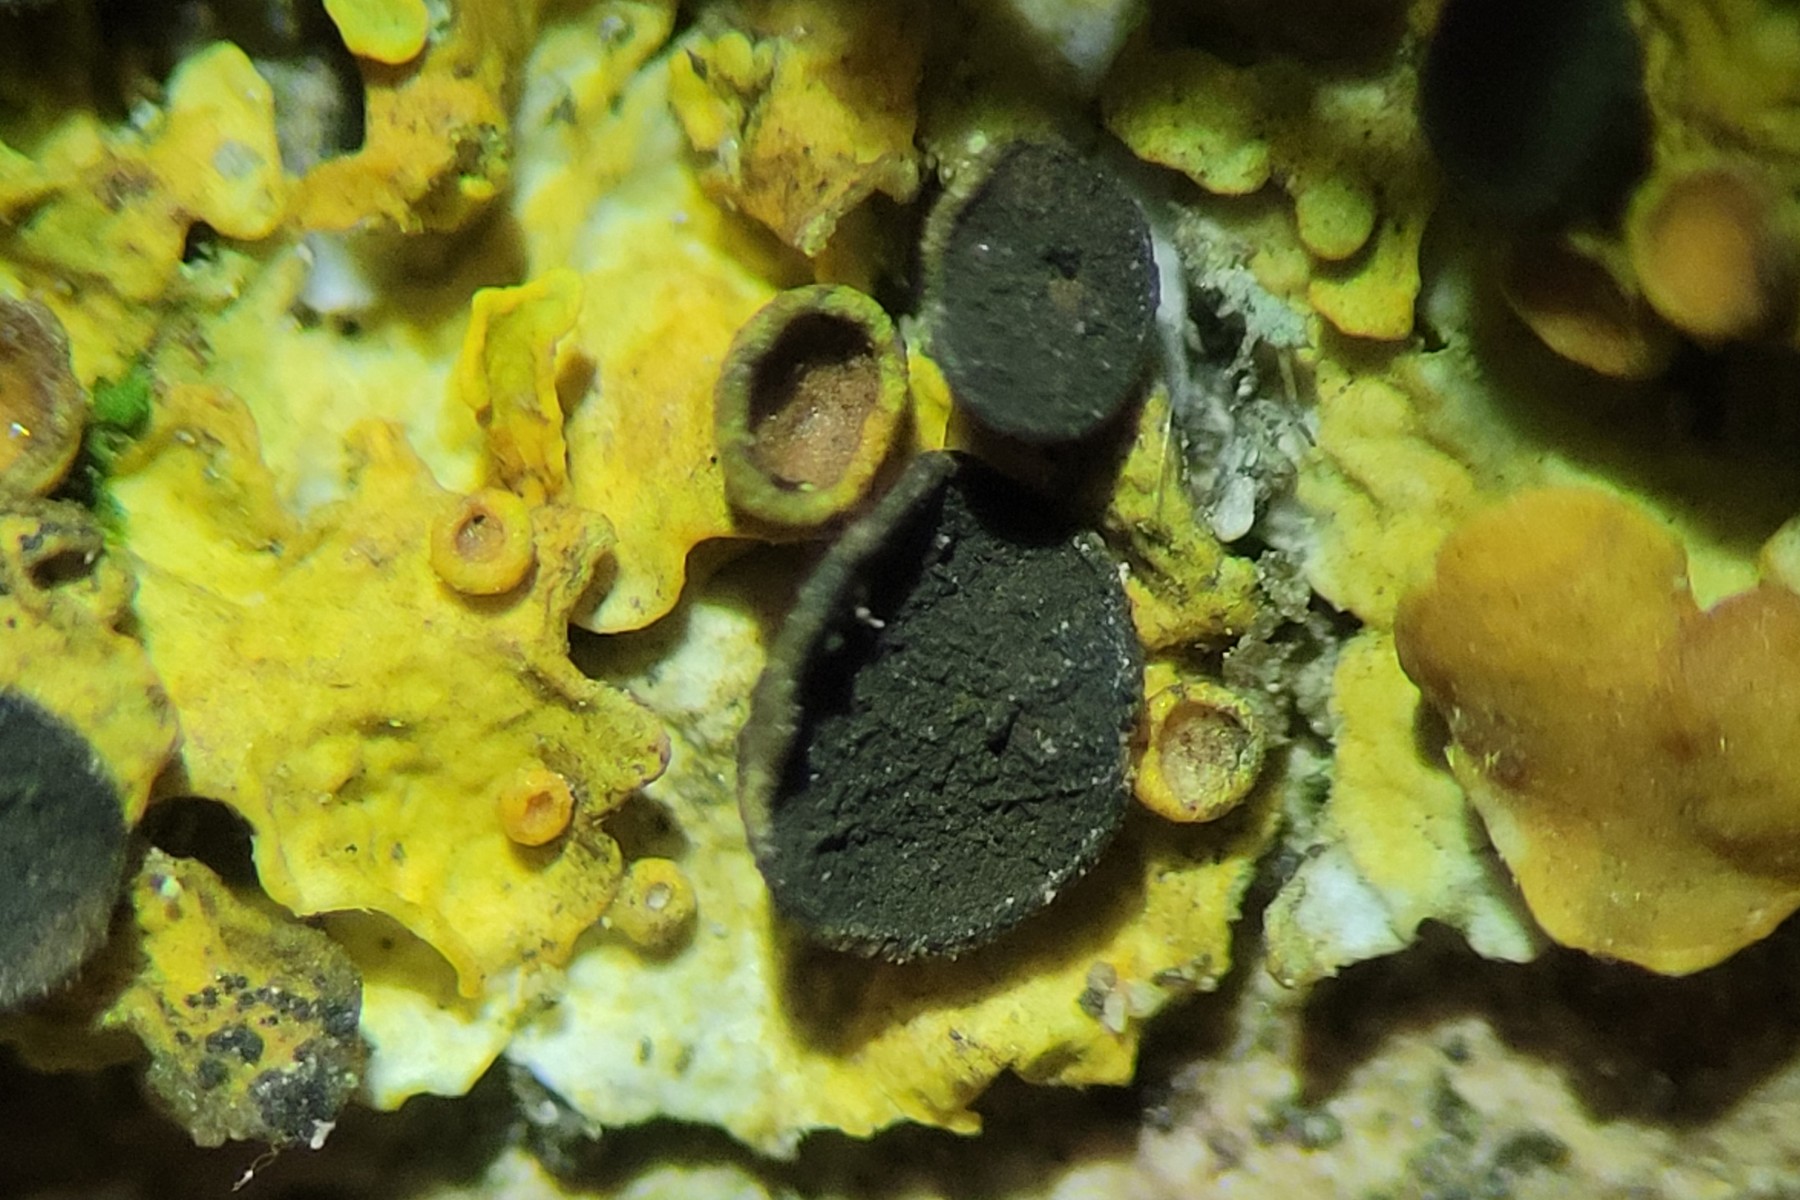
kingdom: Fungi
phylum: Ascomycota
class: Dothideomycetes
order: Mycosphaerellales
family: Teratosphaeriaceae
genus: Xanthoriicola
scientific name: Xanthoriicola physciae
